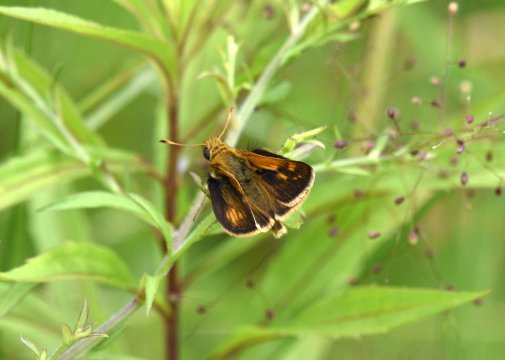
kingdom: Animalia
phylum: Arthropoda
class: Insecta
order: Lepidoptera
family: Hesperiidae
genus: Polites
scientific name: Polites coras
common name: Peck's Skipper
